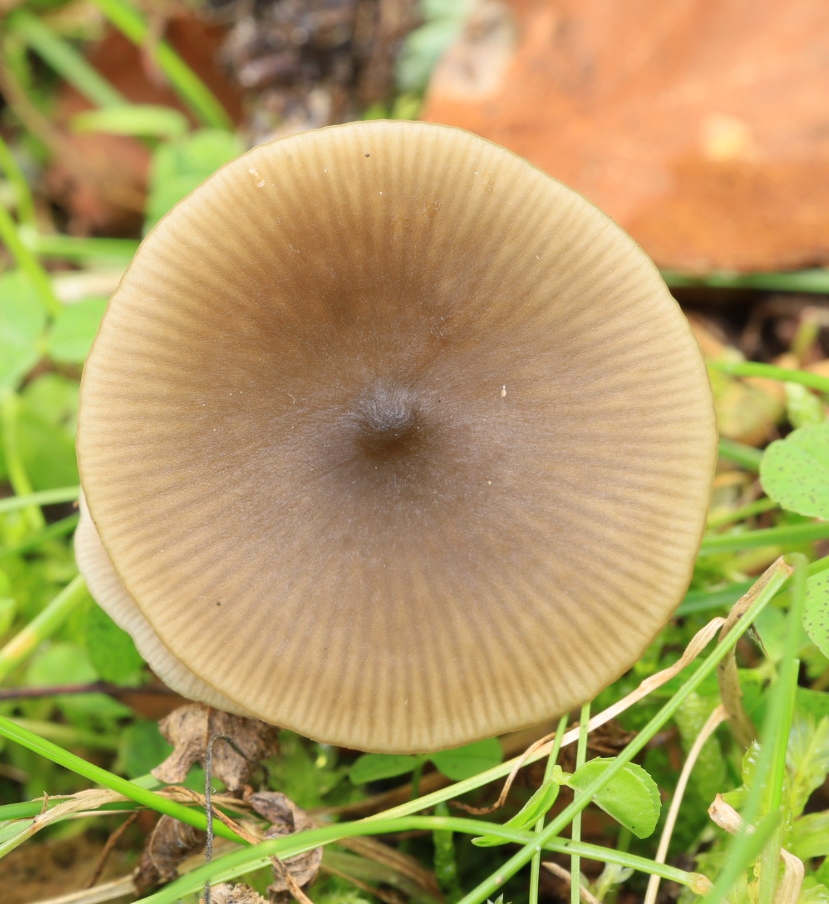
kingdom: Fungi
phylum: Basidiomycota
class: Agaricomycetes
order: Agaricales
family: Entolomataceae
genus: Entoloma
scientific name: Entoloma
